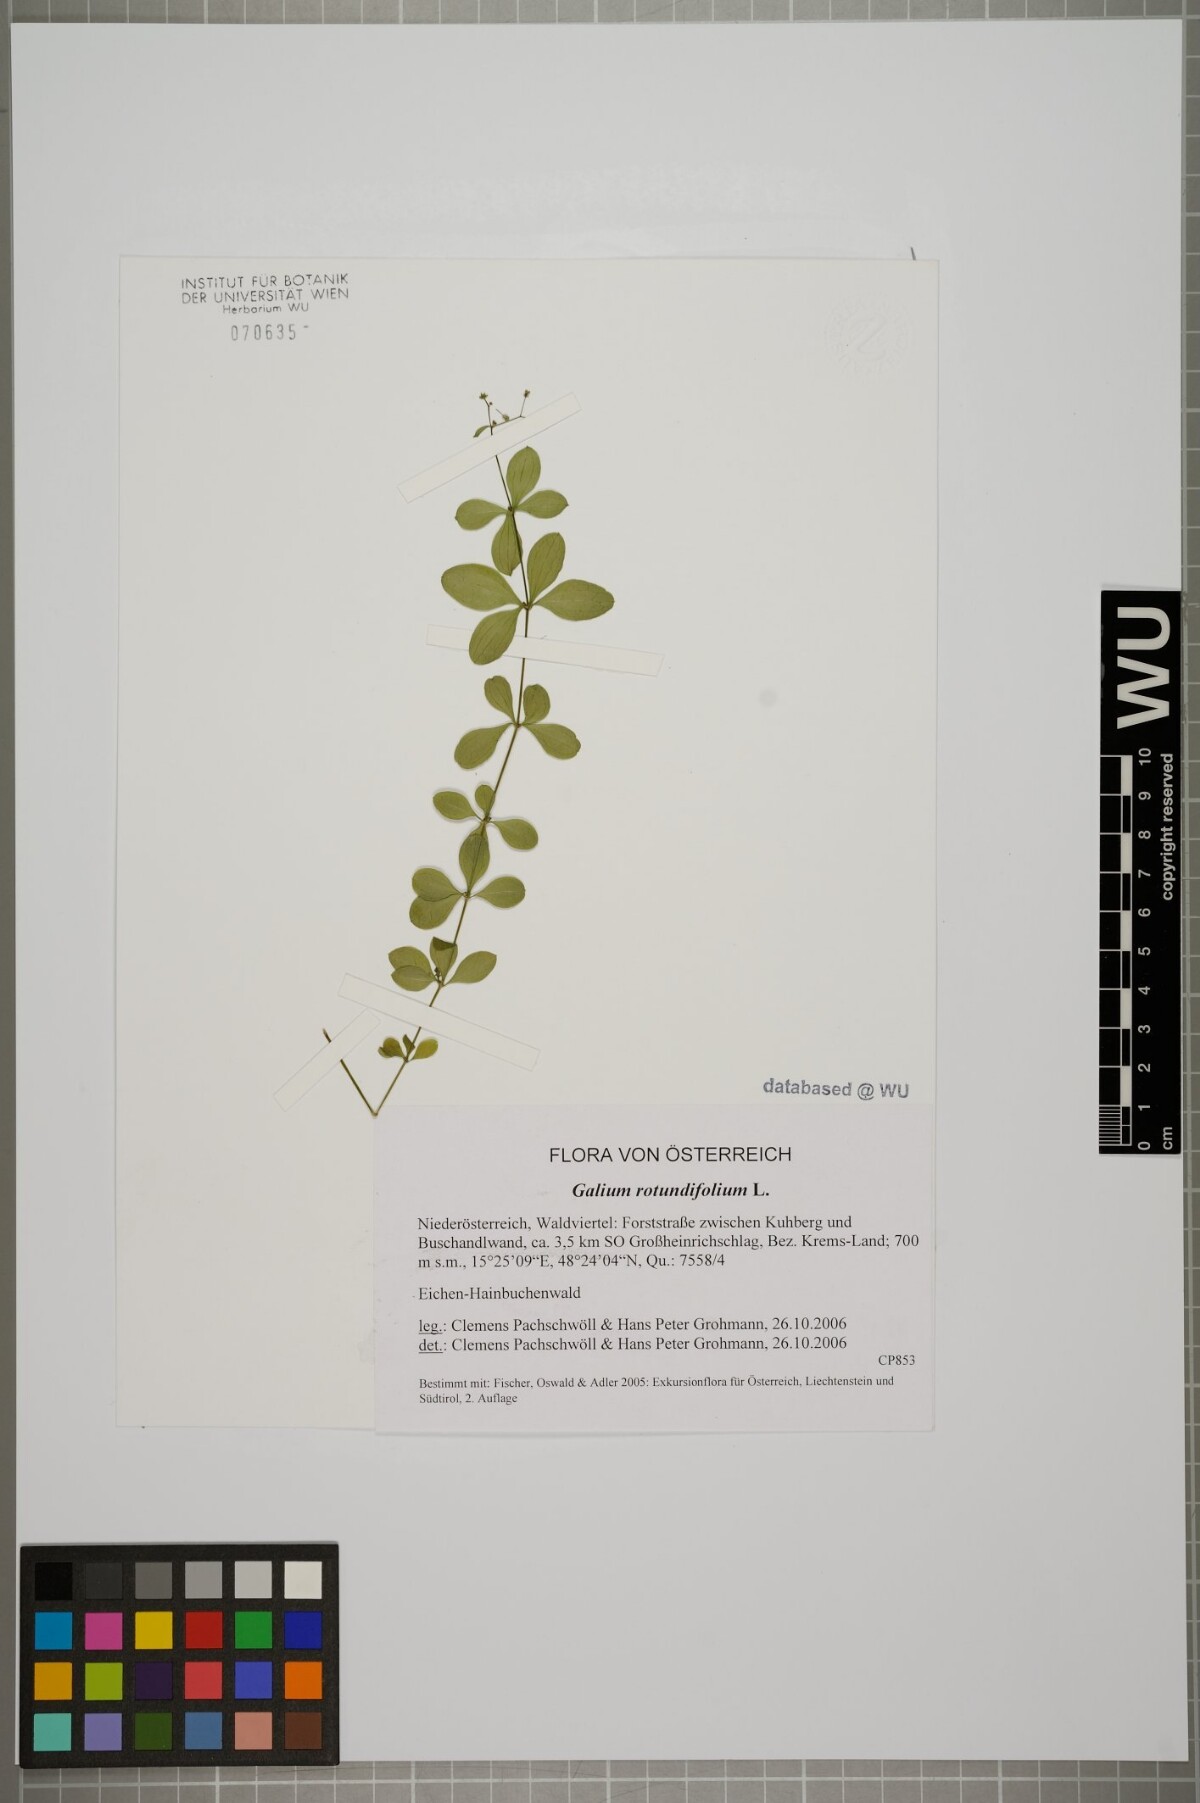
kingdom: Plantae
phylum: Tracheophyta
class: Magnoliopsida
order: Gentianales
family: Rubiaceae
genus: Galium
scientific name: Galium rotundifolium
